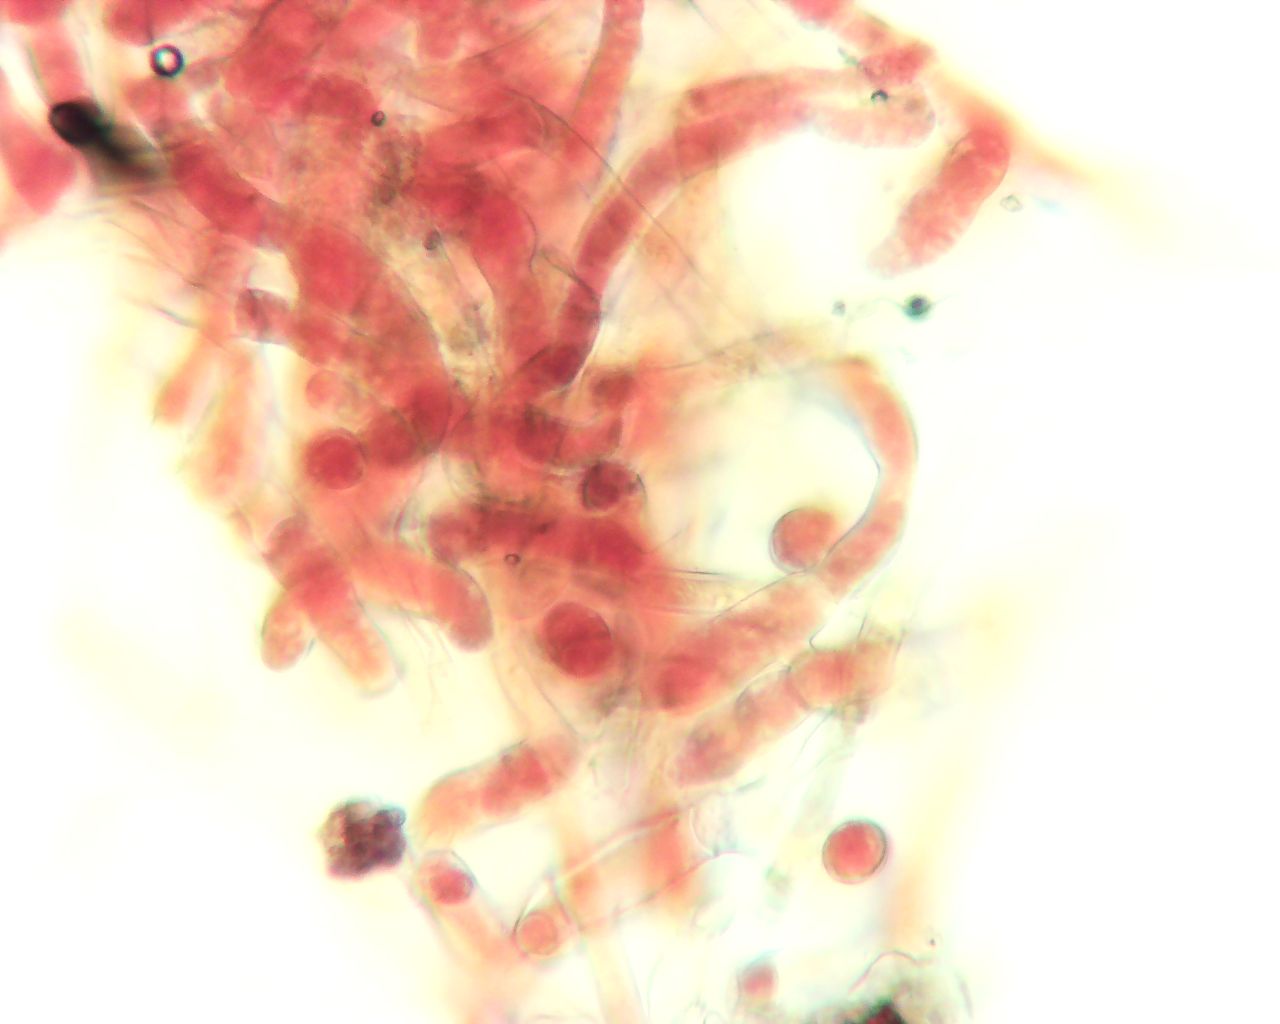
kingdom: Fungi
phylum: Basidiomycota
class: Agaricomycetes
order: Corticiales
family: Corticiaceae
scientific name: Corticiaceae
